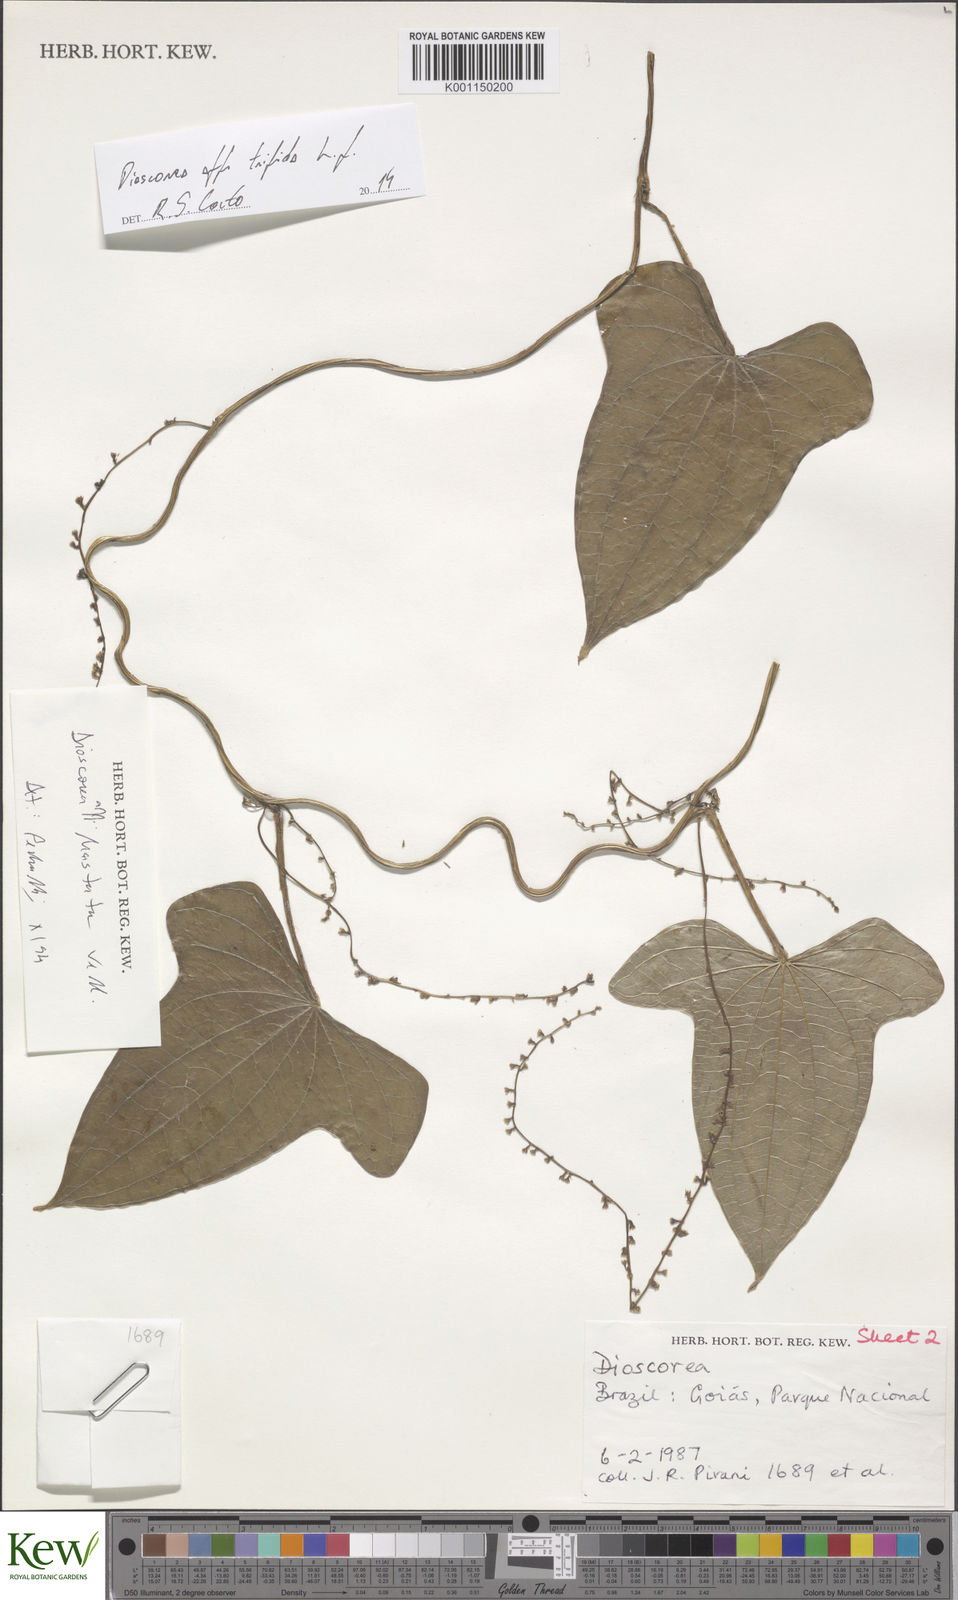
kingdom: Plantae
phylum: Tracheophyta
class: Liliopsida
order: Dioscoreales
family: Dioscoreaceae
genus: Dioscorea
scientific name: Dioscorea
